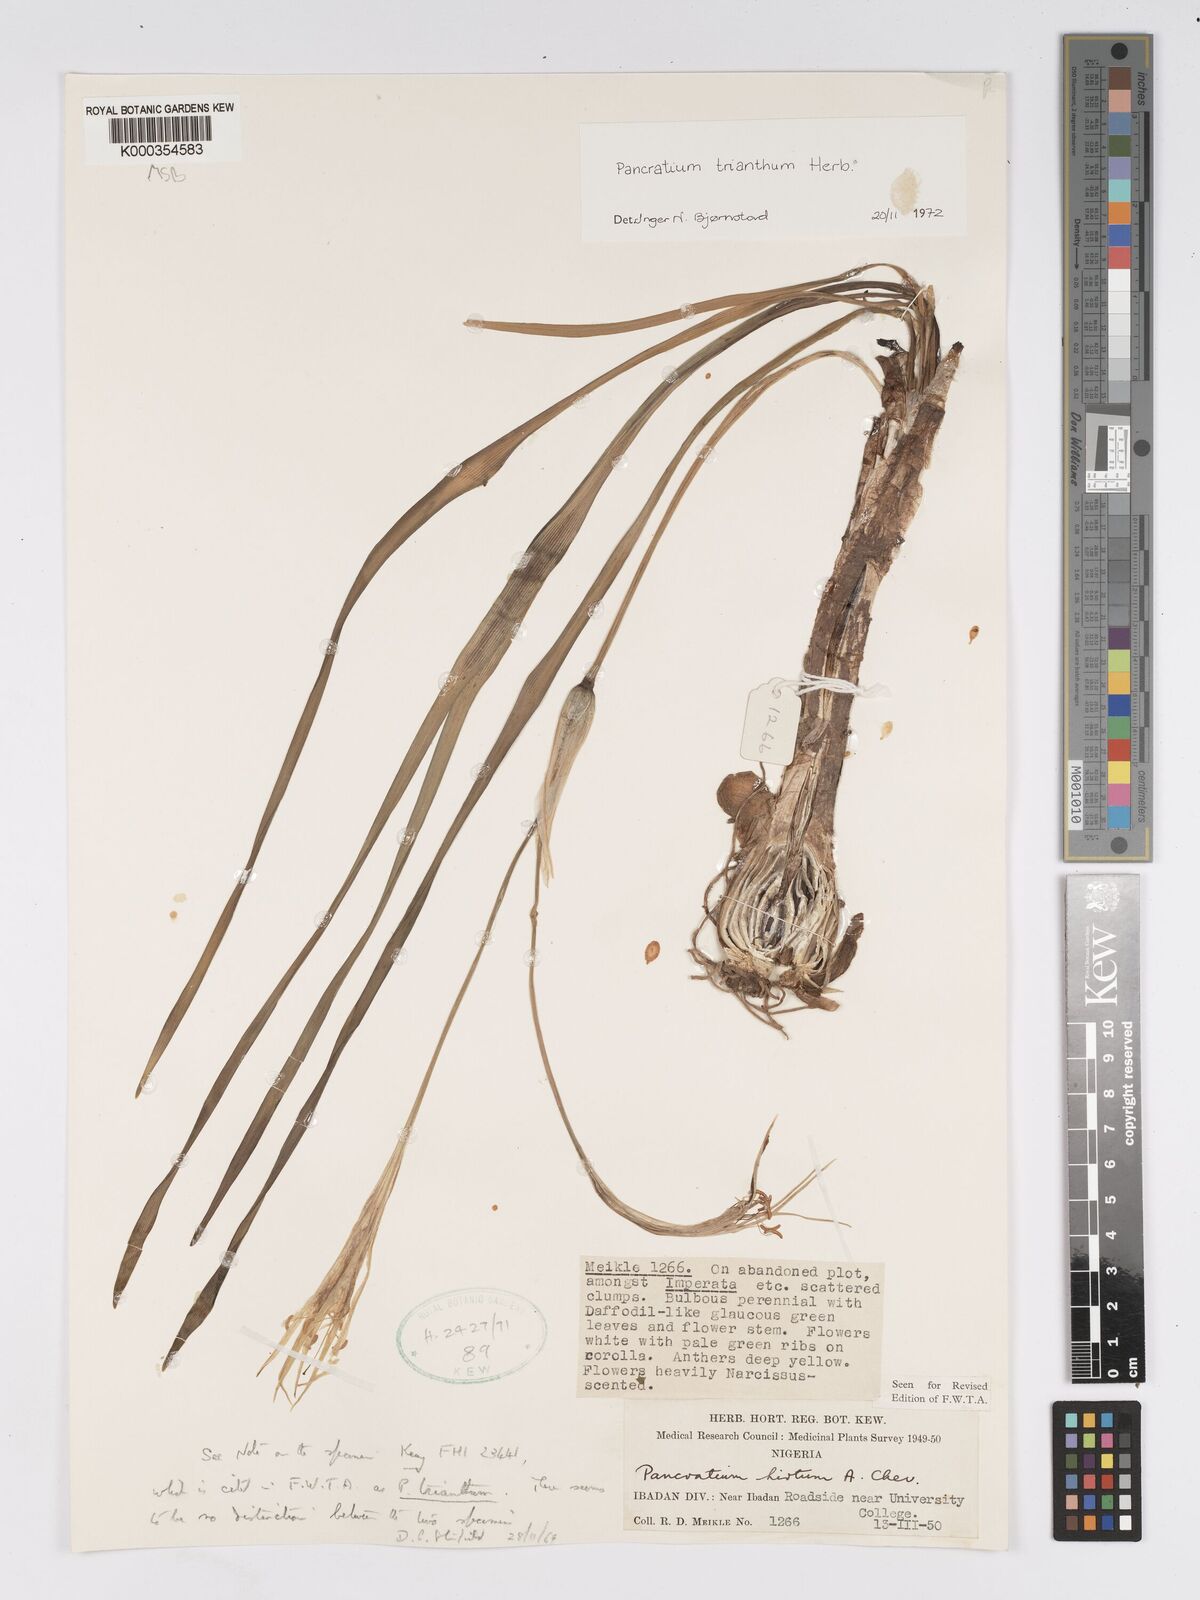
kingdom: Plantae
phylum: Tracheophyta
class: Liliopsida
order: Asparagales
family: Amaryllidaceae
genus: Pancratium
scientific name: Pancratium trianthum
